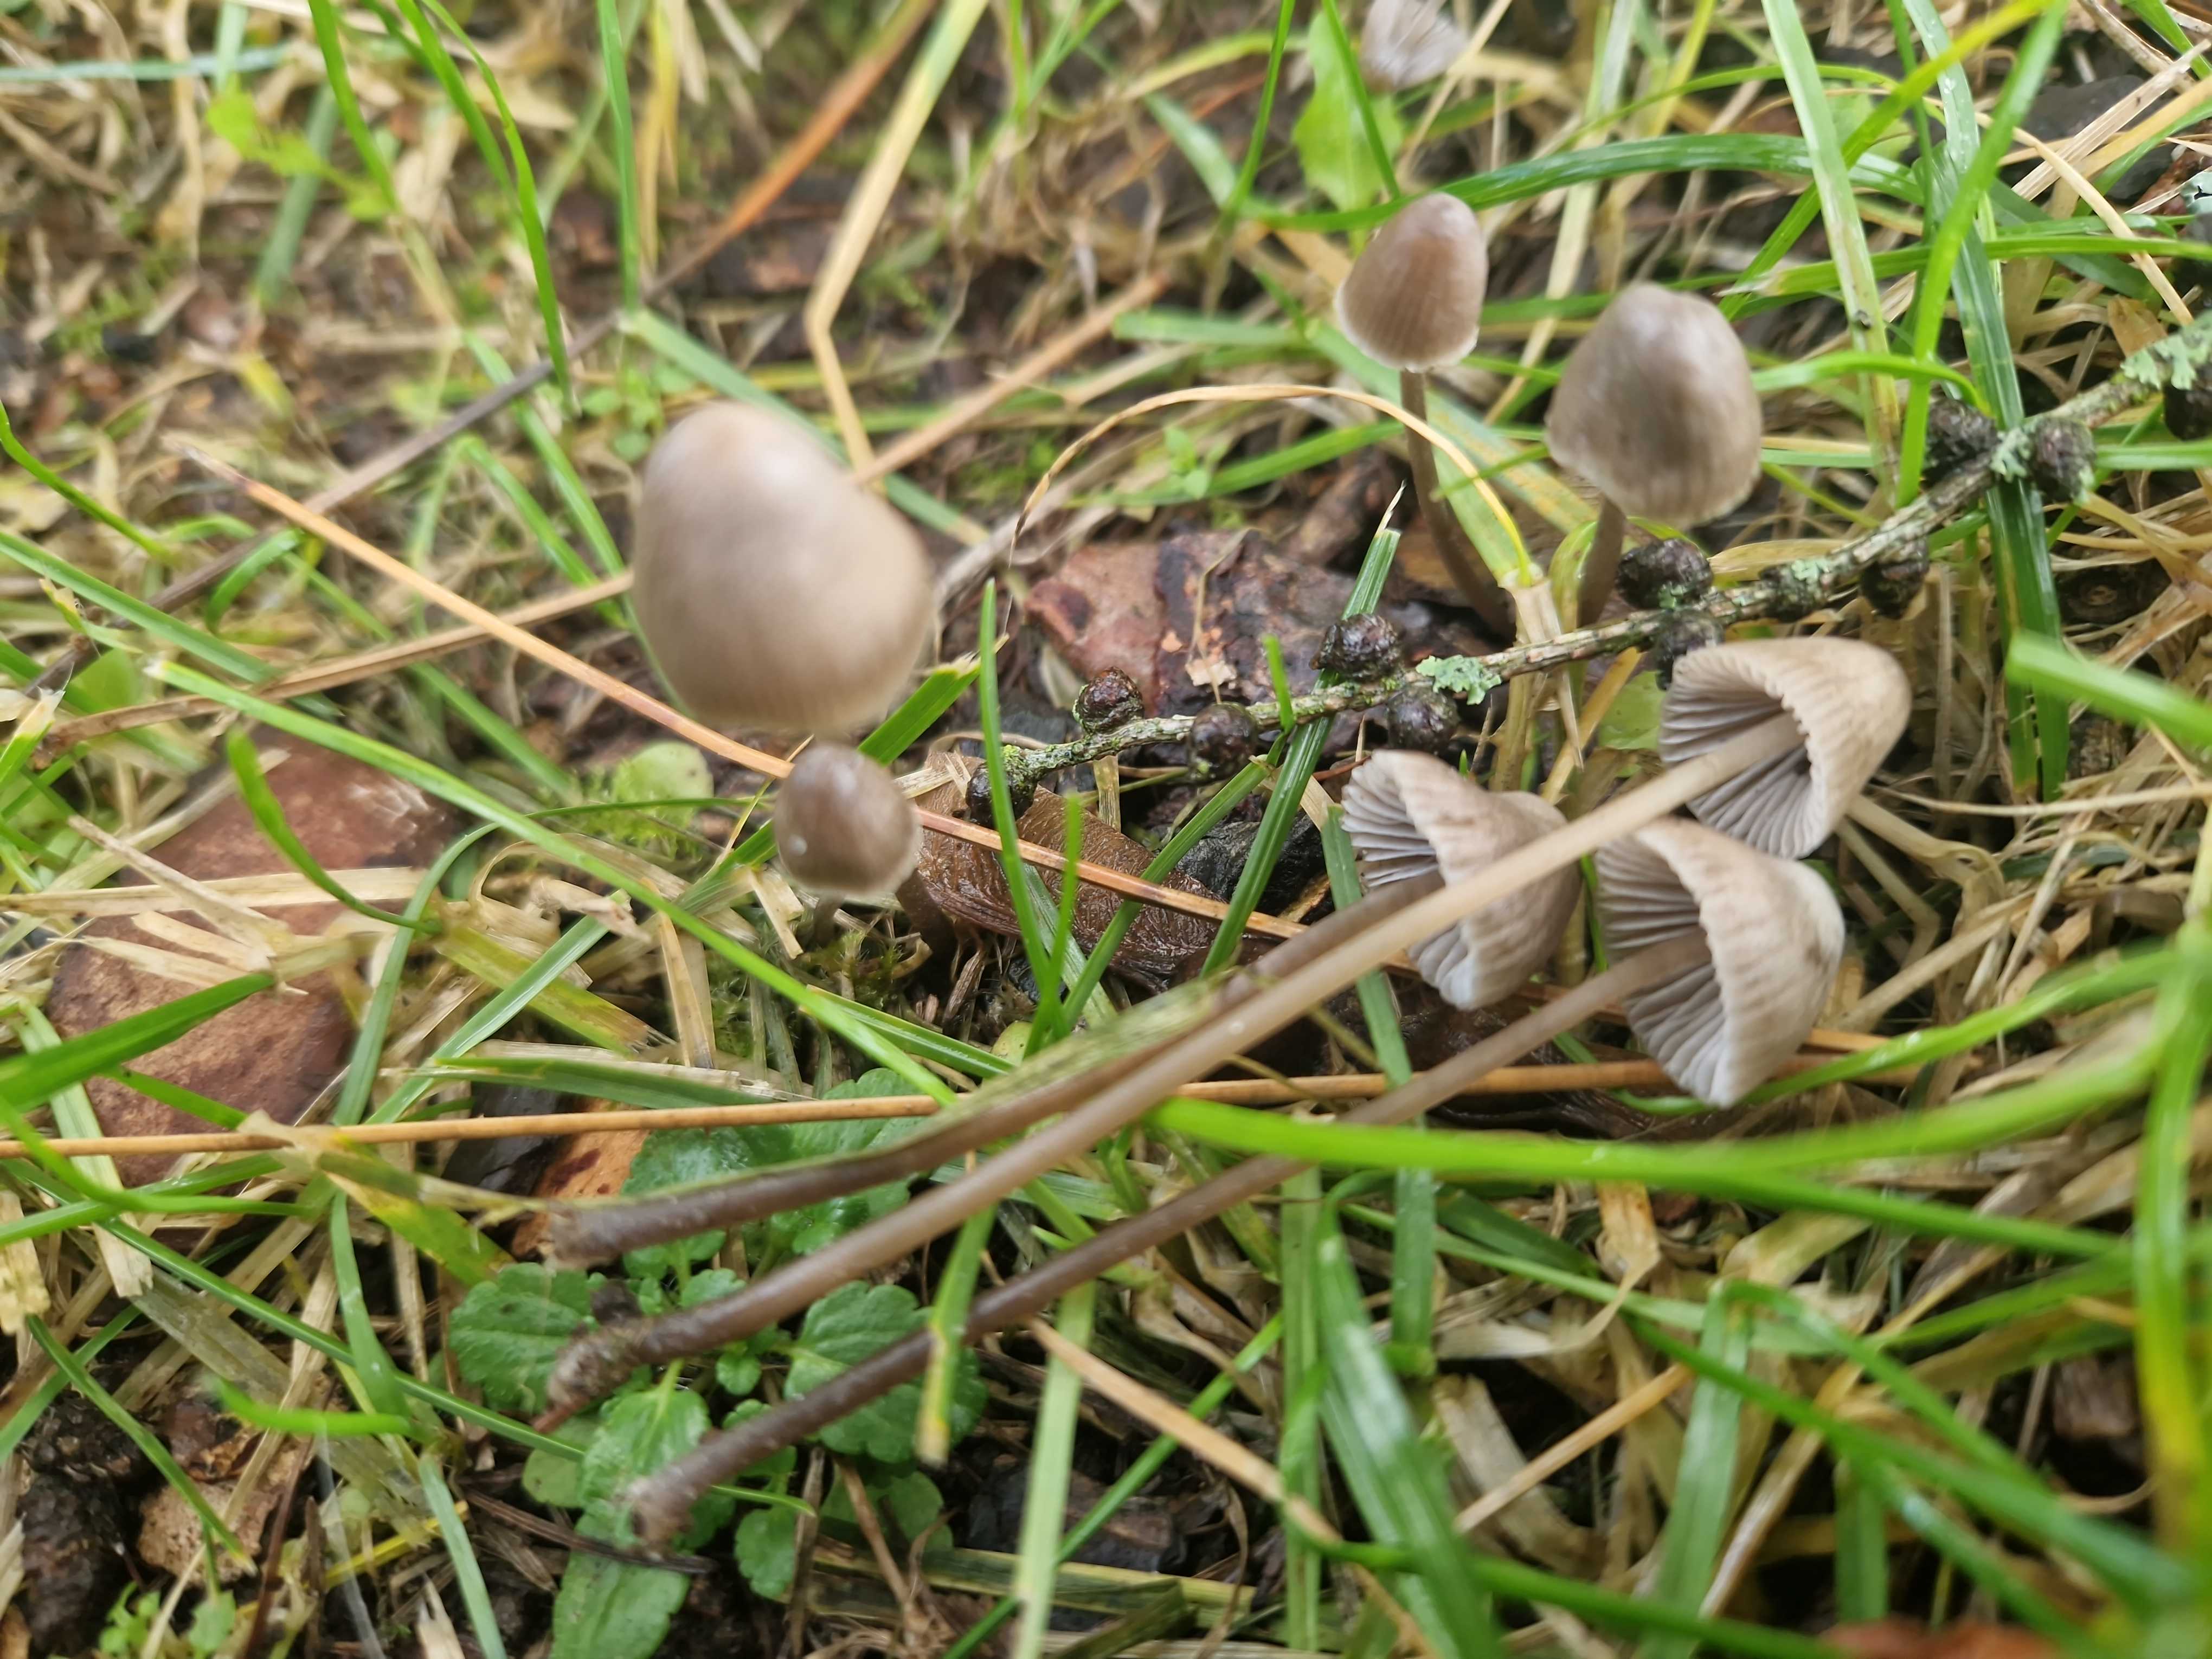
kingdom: Fungi
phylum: Basidiomycota
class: Agaricomycetes
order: Agaricales
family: Mycenaceae
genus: Mycena
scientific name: Mycena leptocephala
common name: klor-huesvamp
